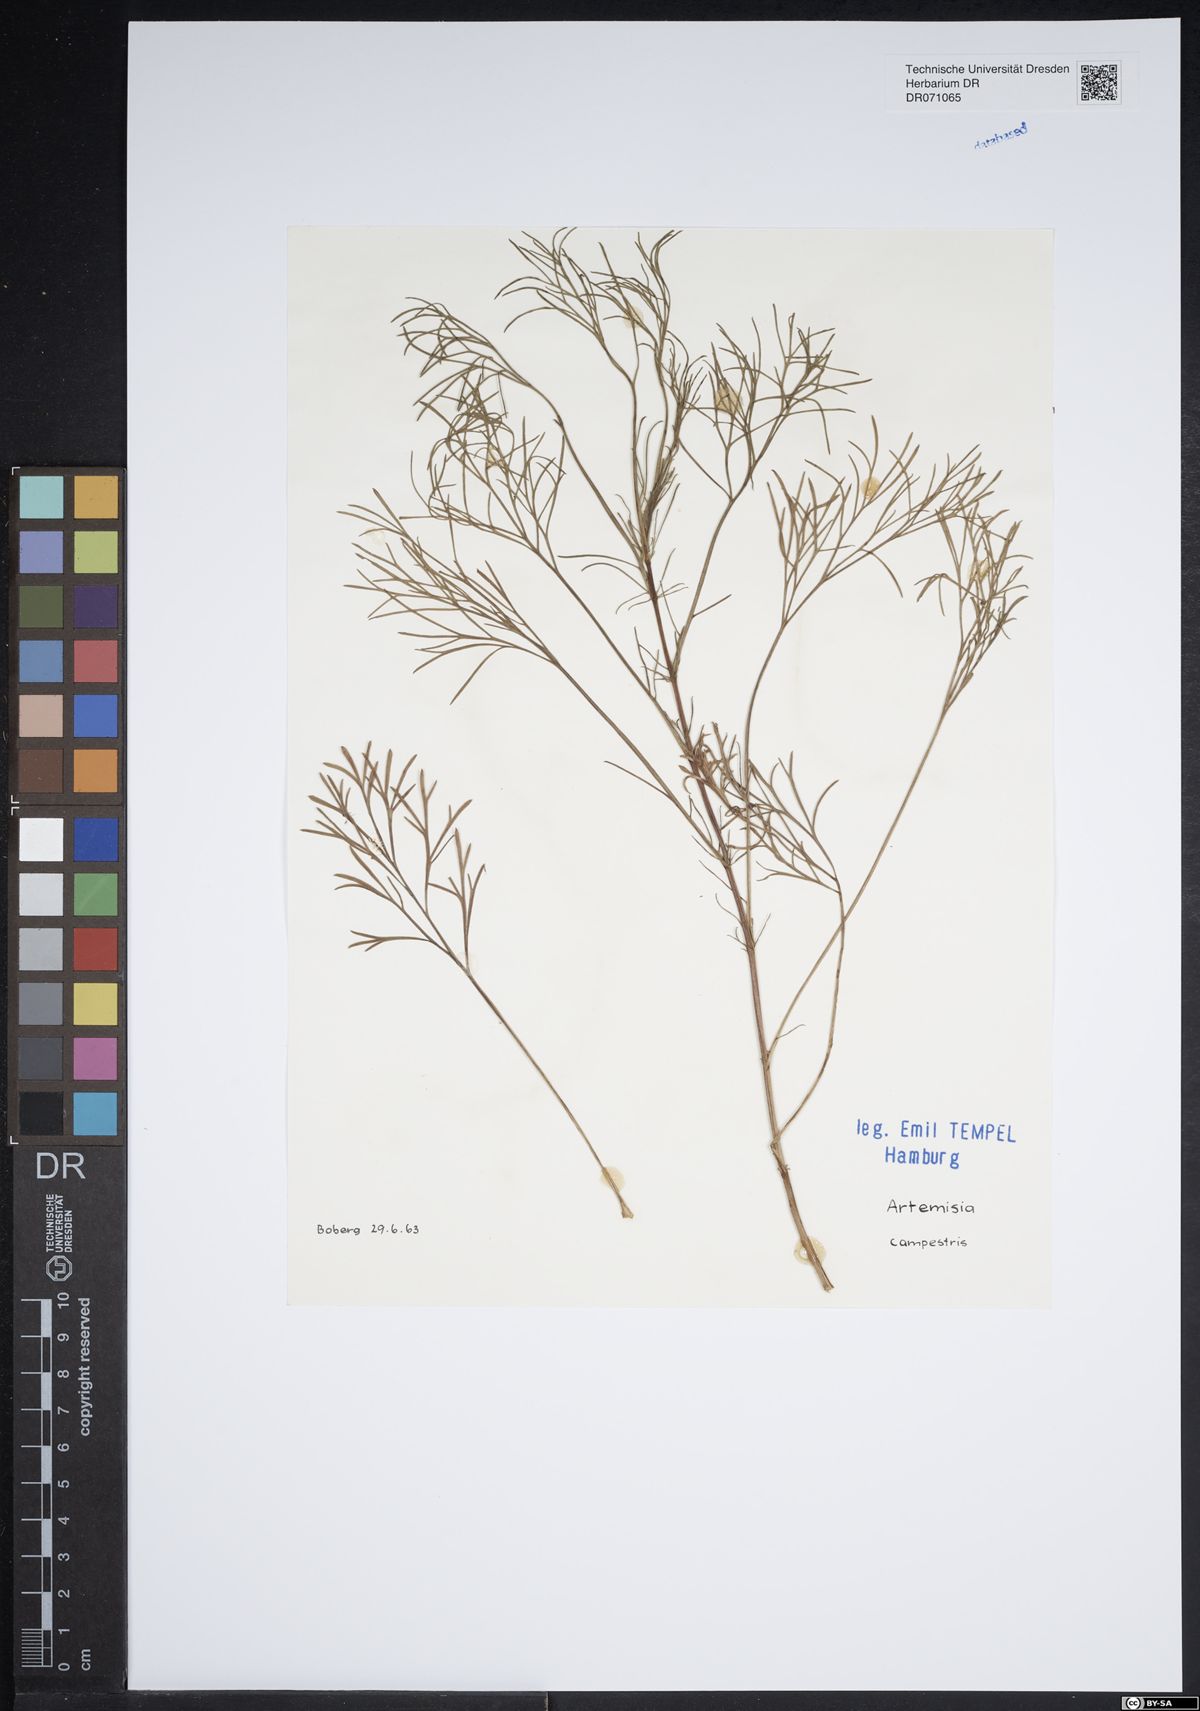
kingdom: Plantae
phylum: Tracheophyta
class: Magnoliopsida
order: Asterales
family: Asteraceae
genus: Artemisia
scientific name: Artemisia campestris
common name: Field wormwood
